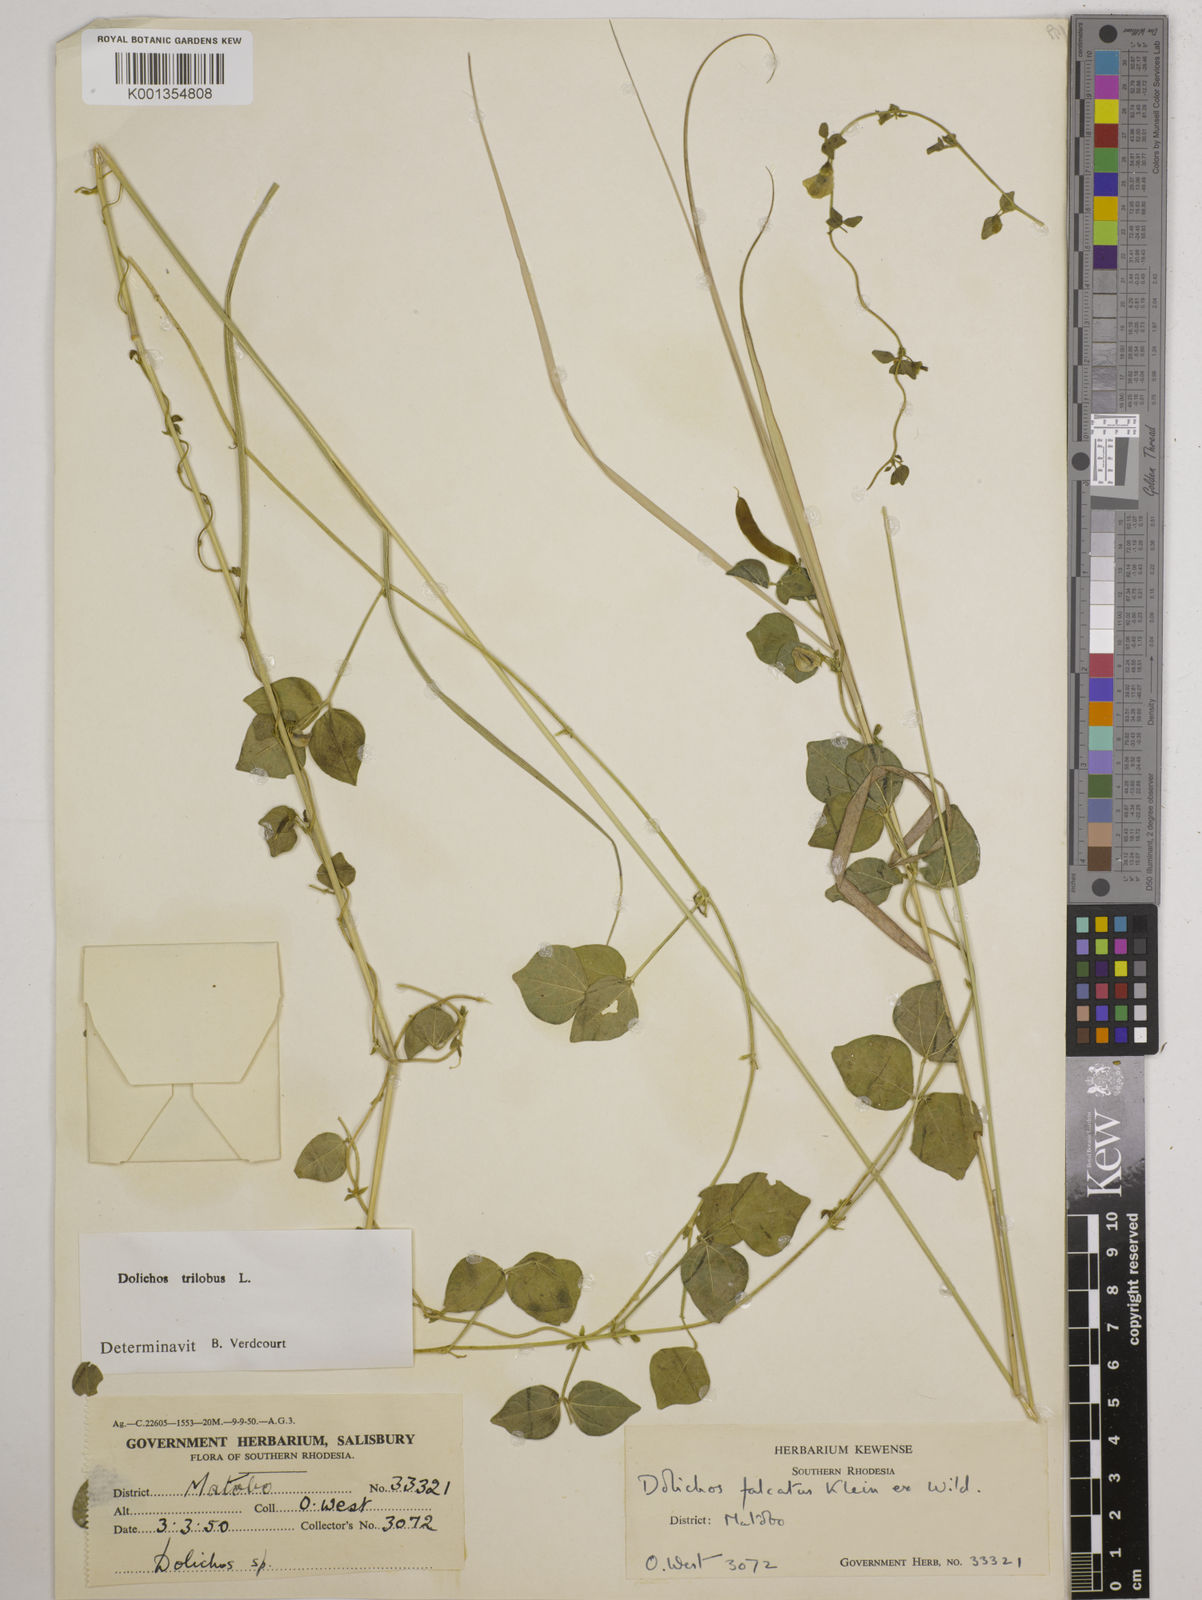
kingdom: Plantae
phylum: Tracheophyta
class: Magnoliopsida
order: Fabales
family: Fabaceae
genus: Dolichos
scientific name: Dolichos
